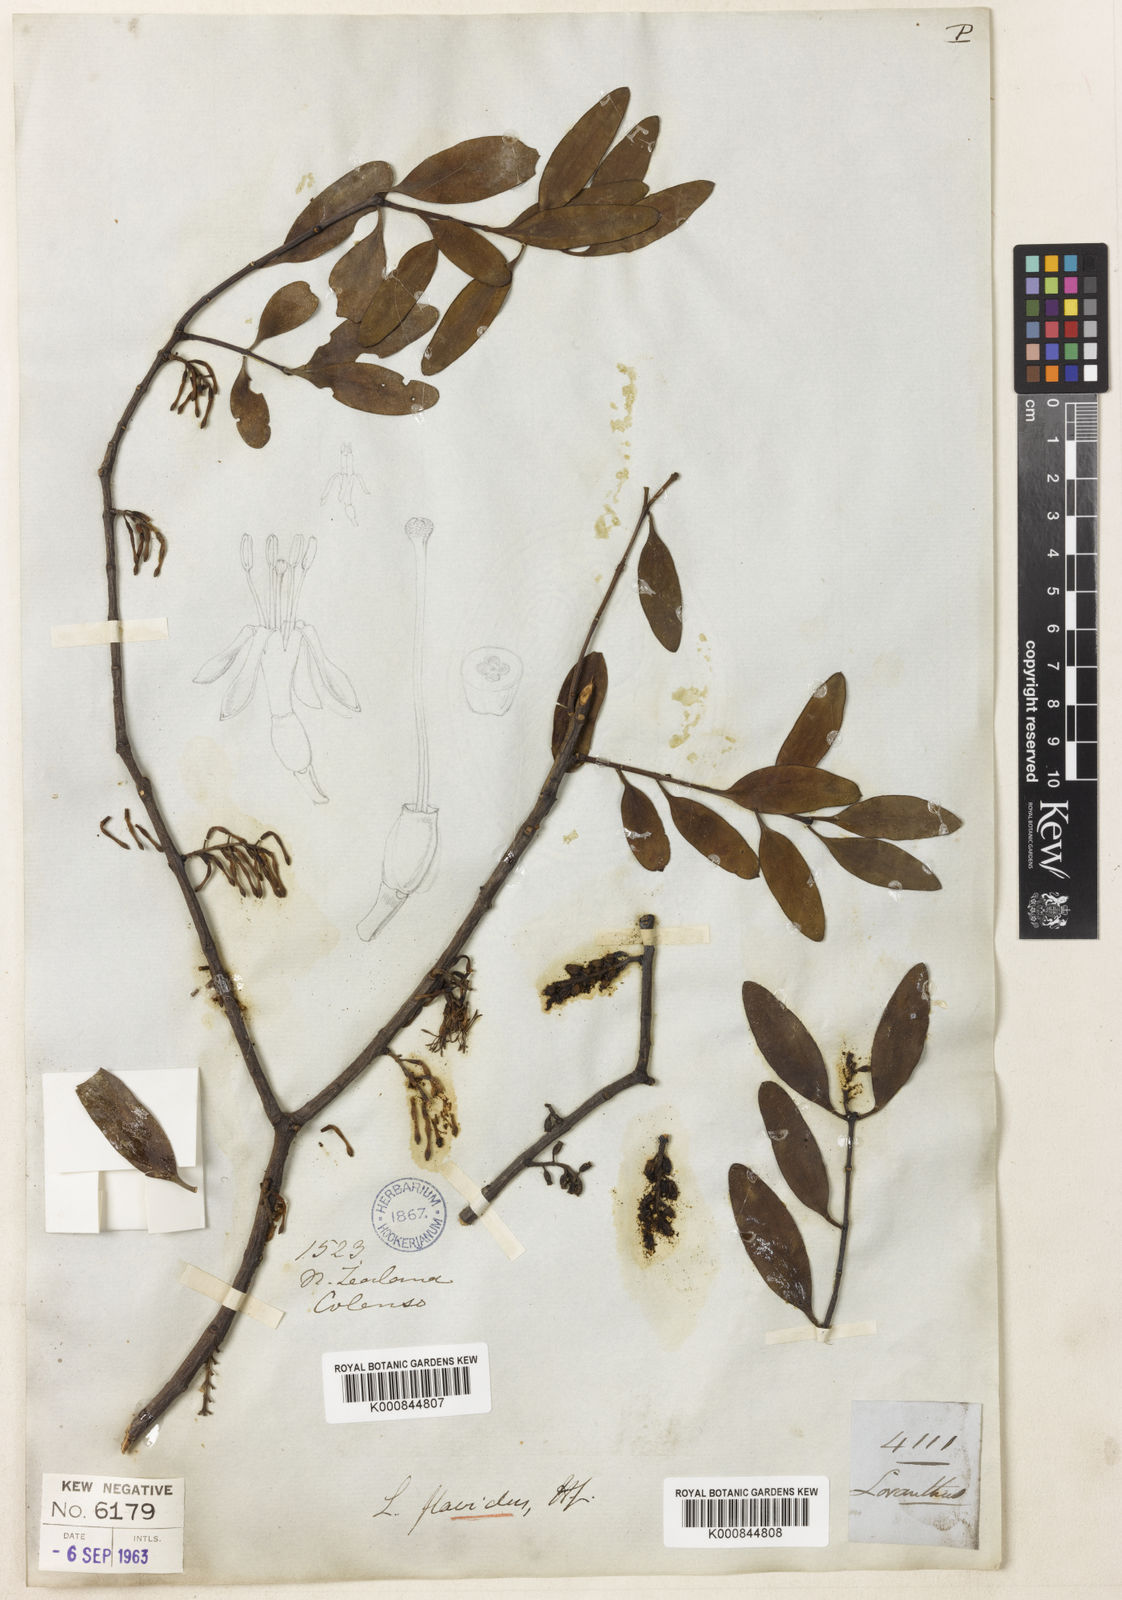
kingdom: Plantae
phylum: Tracheophyta
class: Magnoliopsida
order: Santalales
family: Loranthaceae
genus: Alepis
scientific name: Alepis flavida
